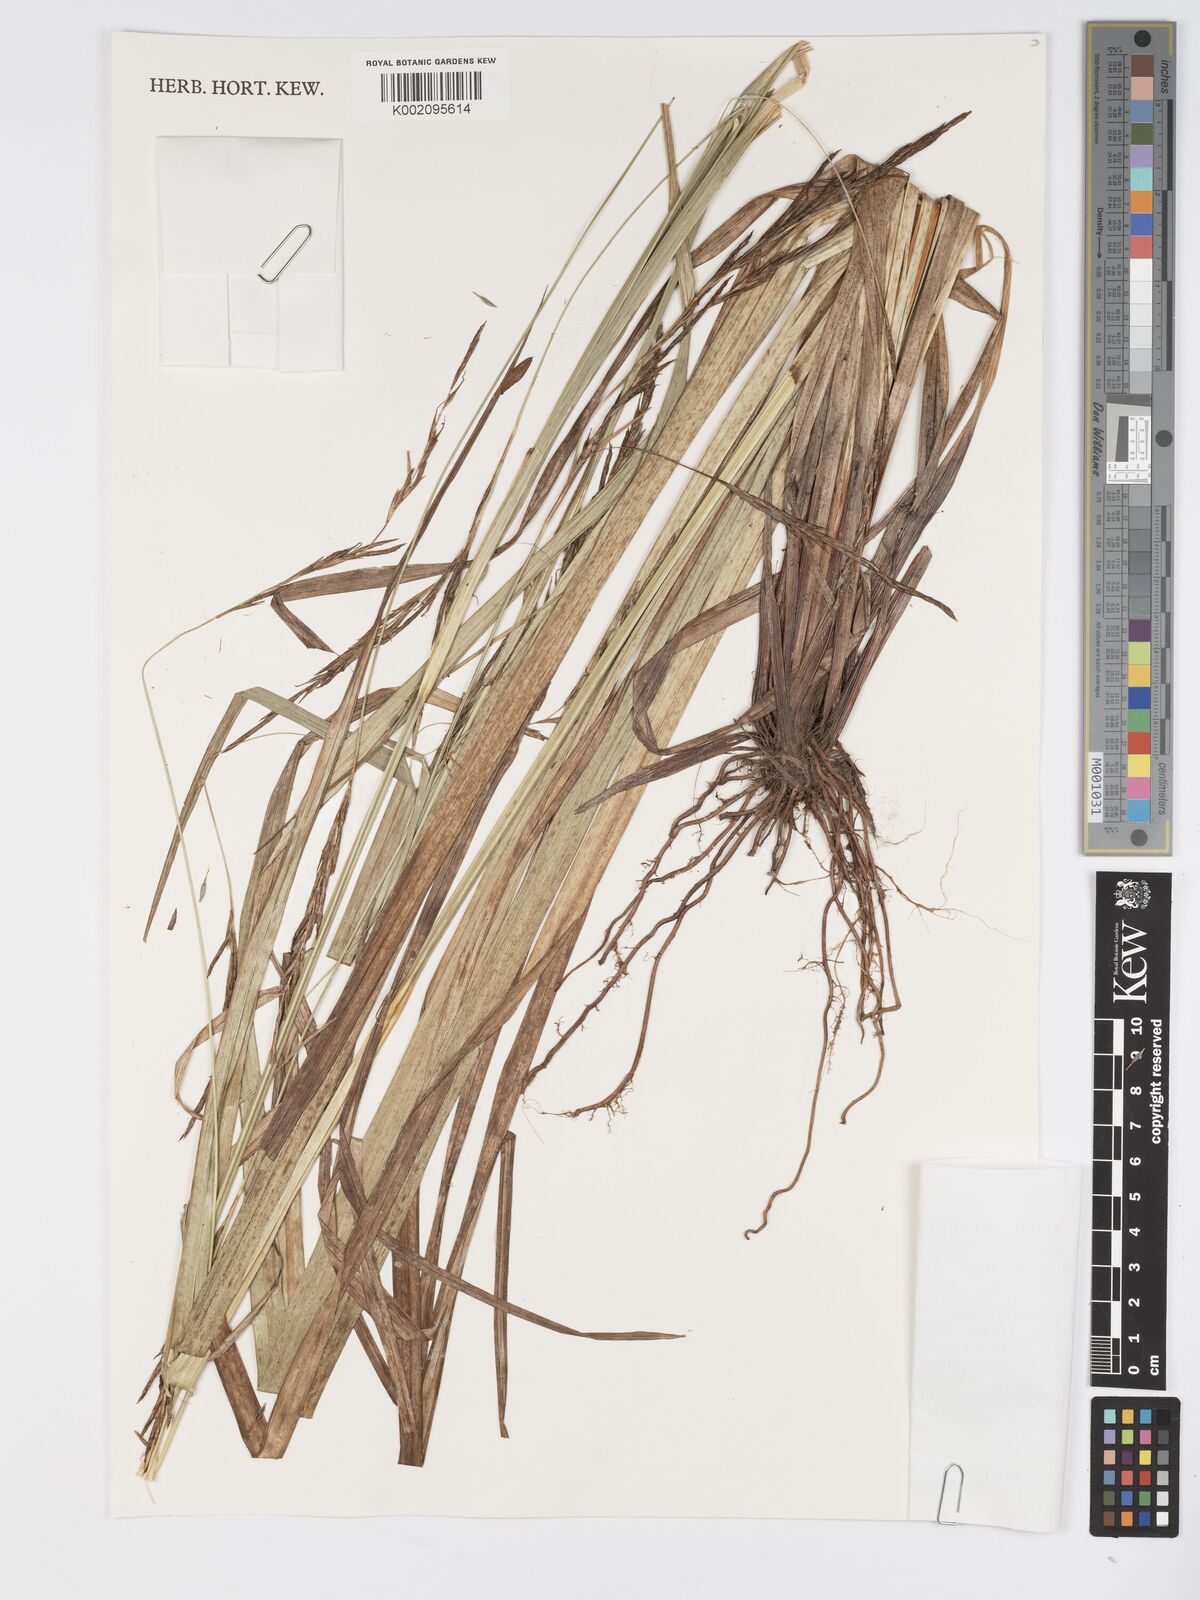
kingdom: Plantae
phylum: Tracheophyta
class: Liliopsida
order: Poales
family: Cyperaceae
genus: Carex
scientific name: Carex johnstonii
